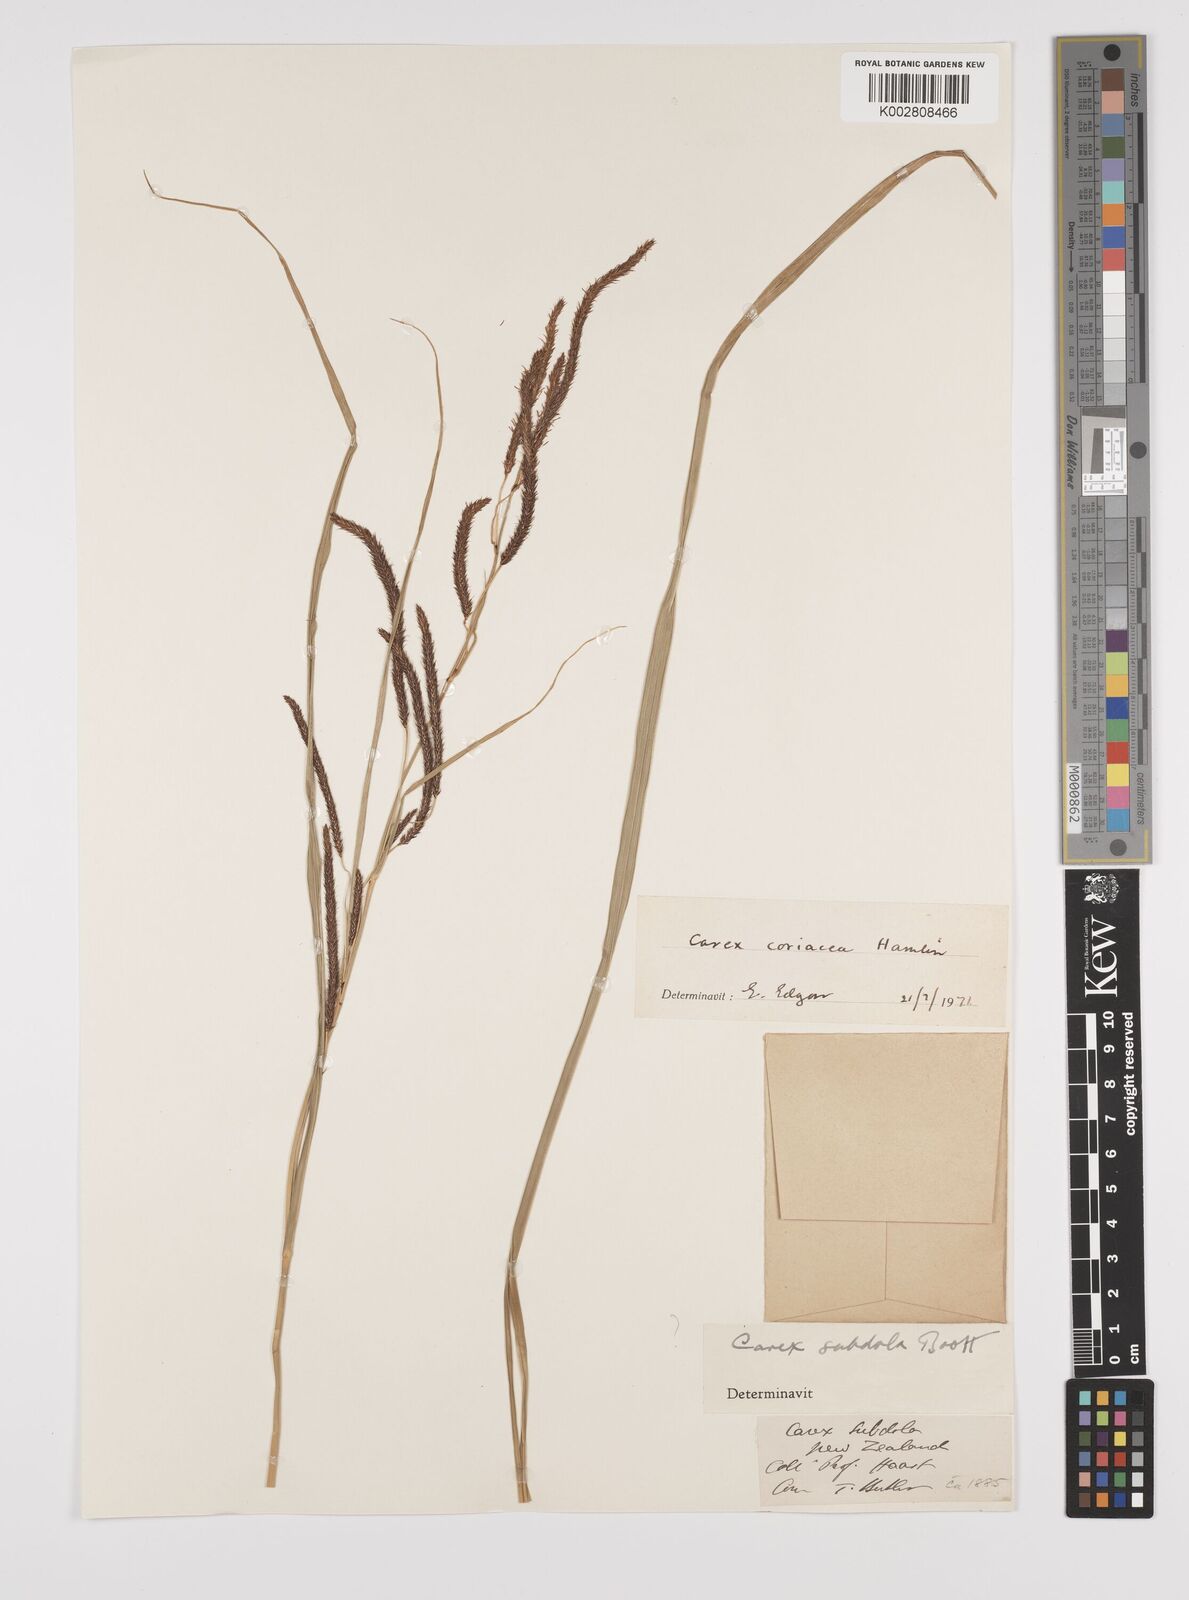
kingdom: Plantae
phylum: Tracheophyta
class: Liliopsida
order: Poales
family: Cyperaceae
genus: Carex
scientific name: Carex coriacea
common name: Rautahi
